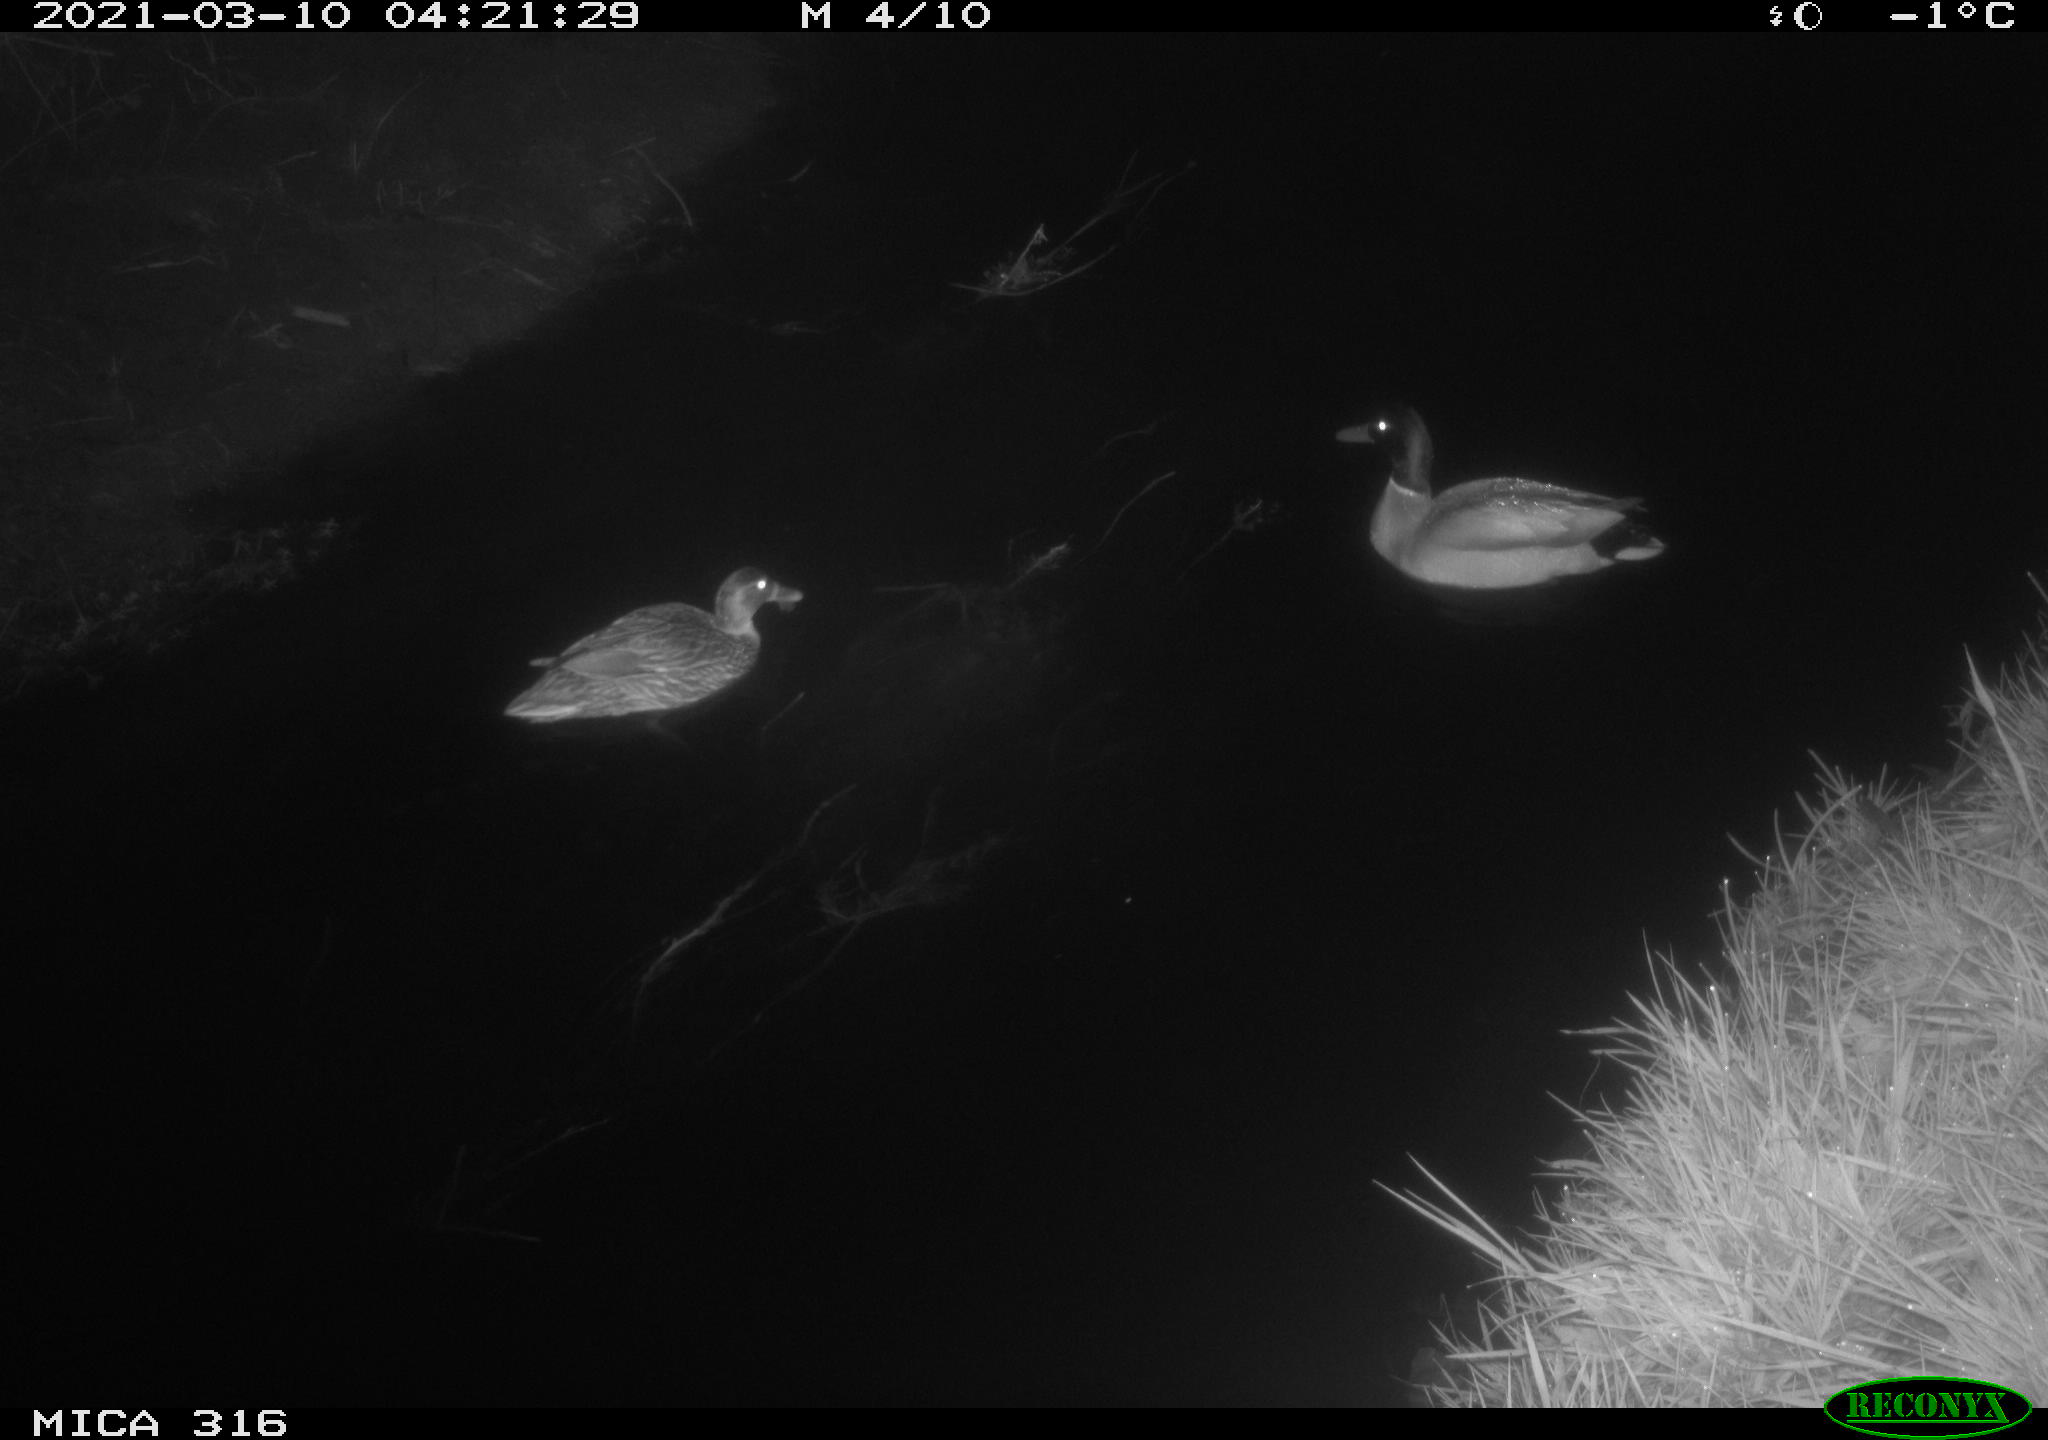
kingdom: Animalia
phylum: Chordata
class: Aves
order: Anseriformes
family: Anatidae
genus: Anas
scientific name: Anas platyrhynchos
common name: Mallard
